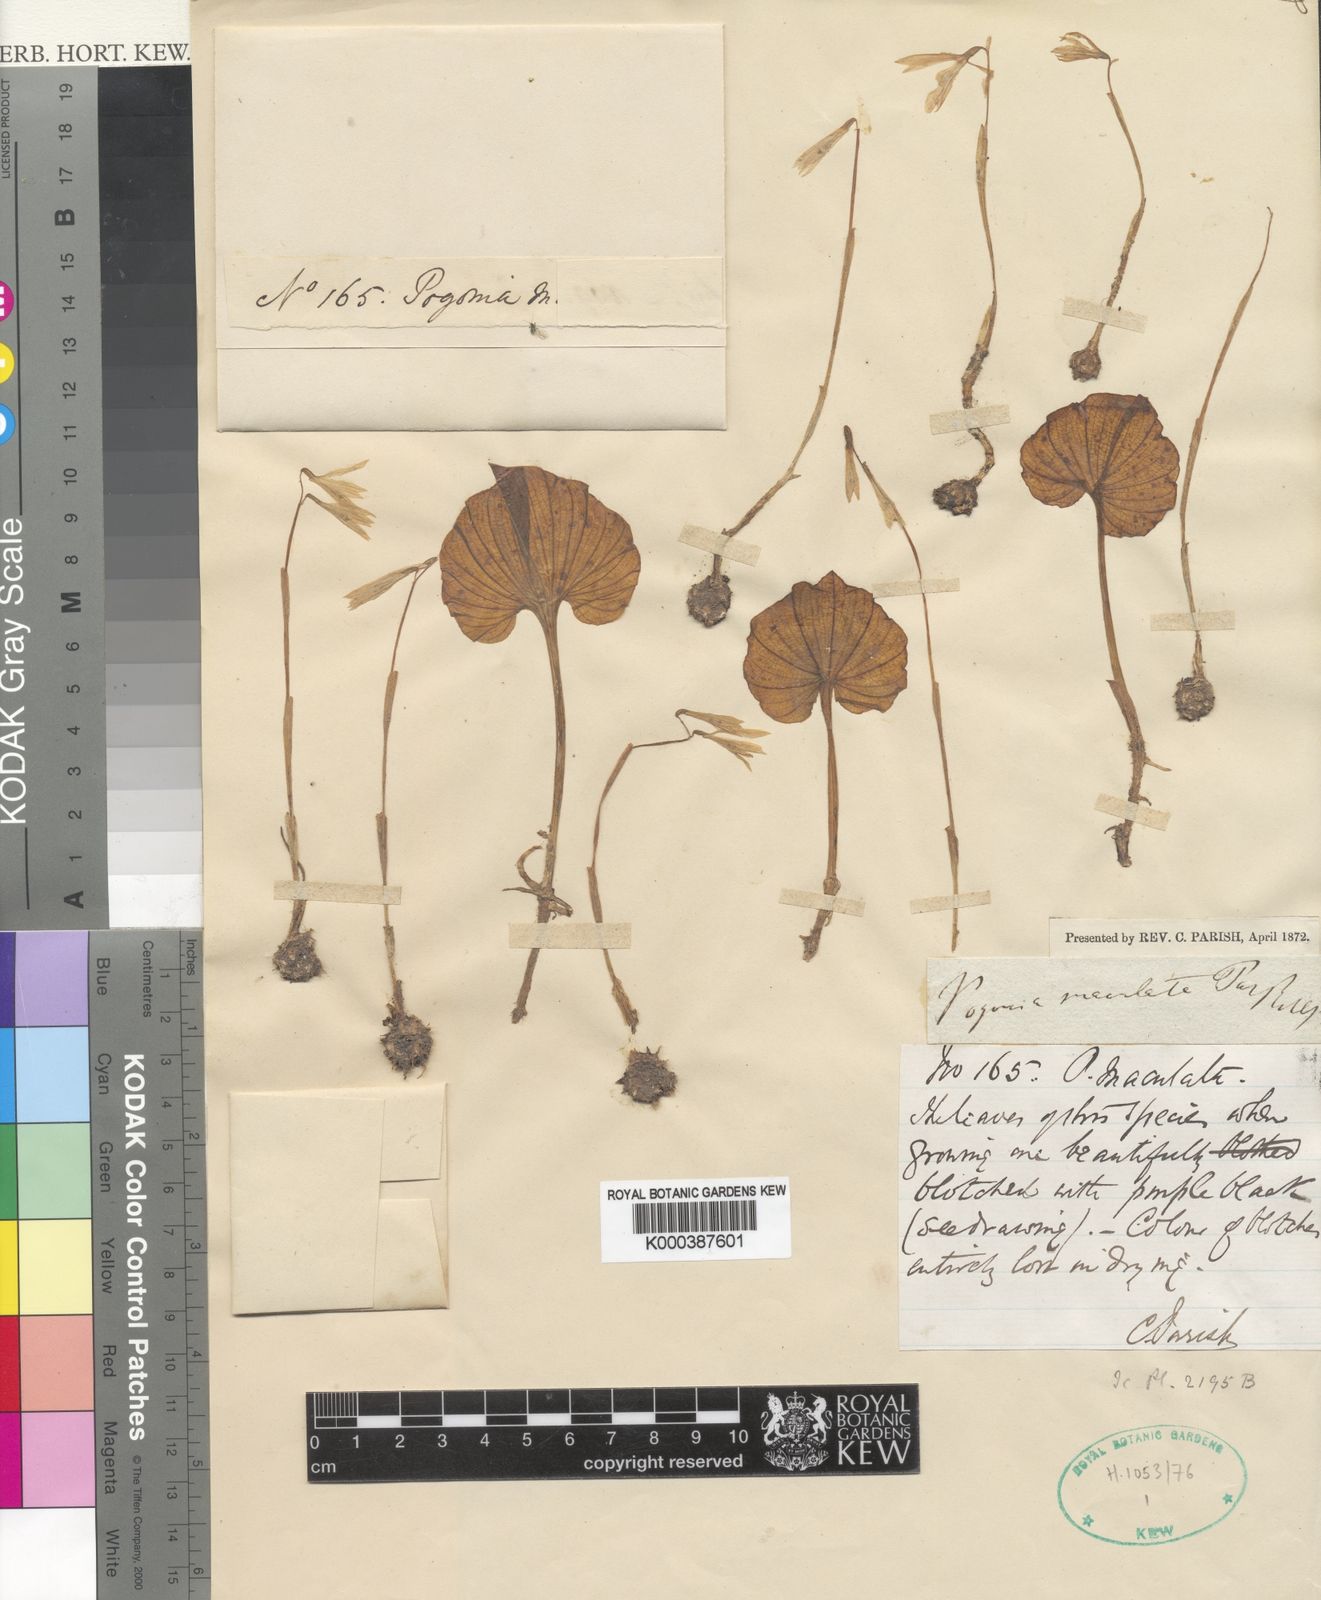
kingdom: Plantae
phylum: Tracheophyta
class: Liliopsida
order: Asparagales
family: Orchidaceae
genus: Nervilia
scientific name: Nervilia maculata
